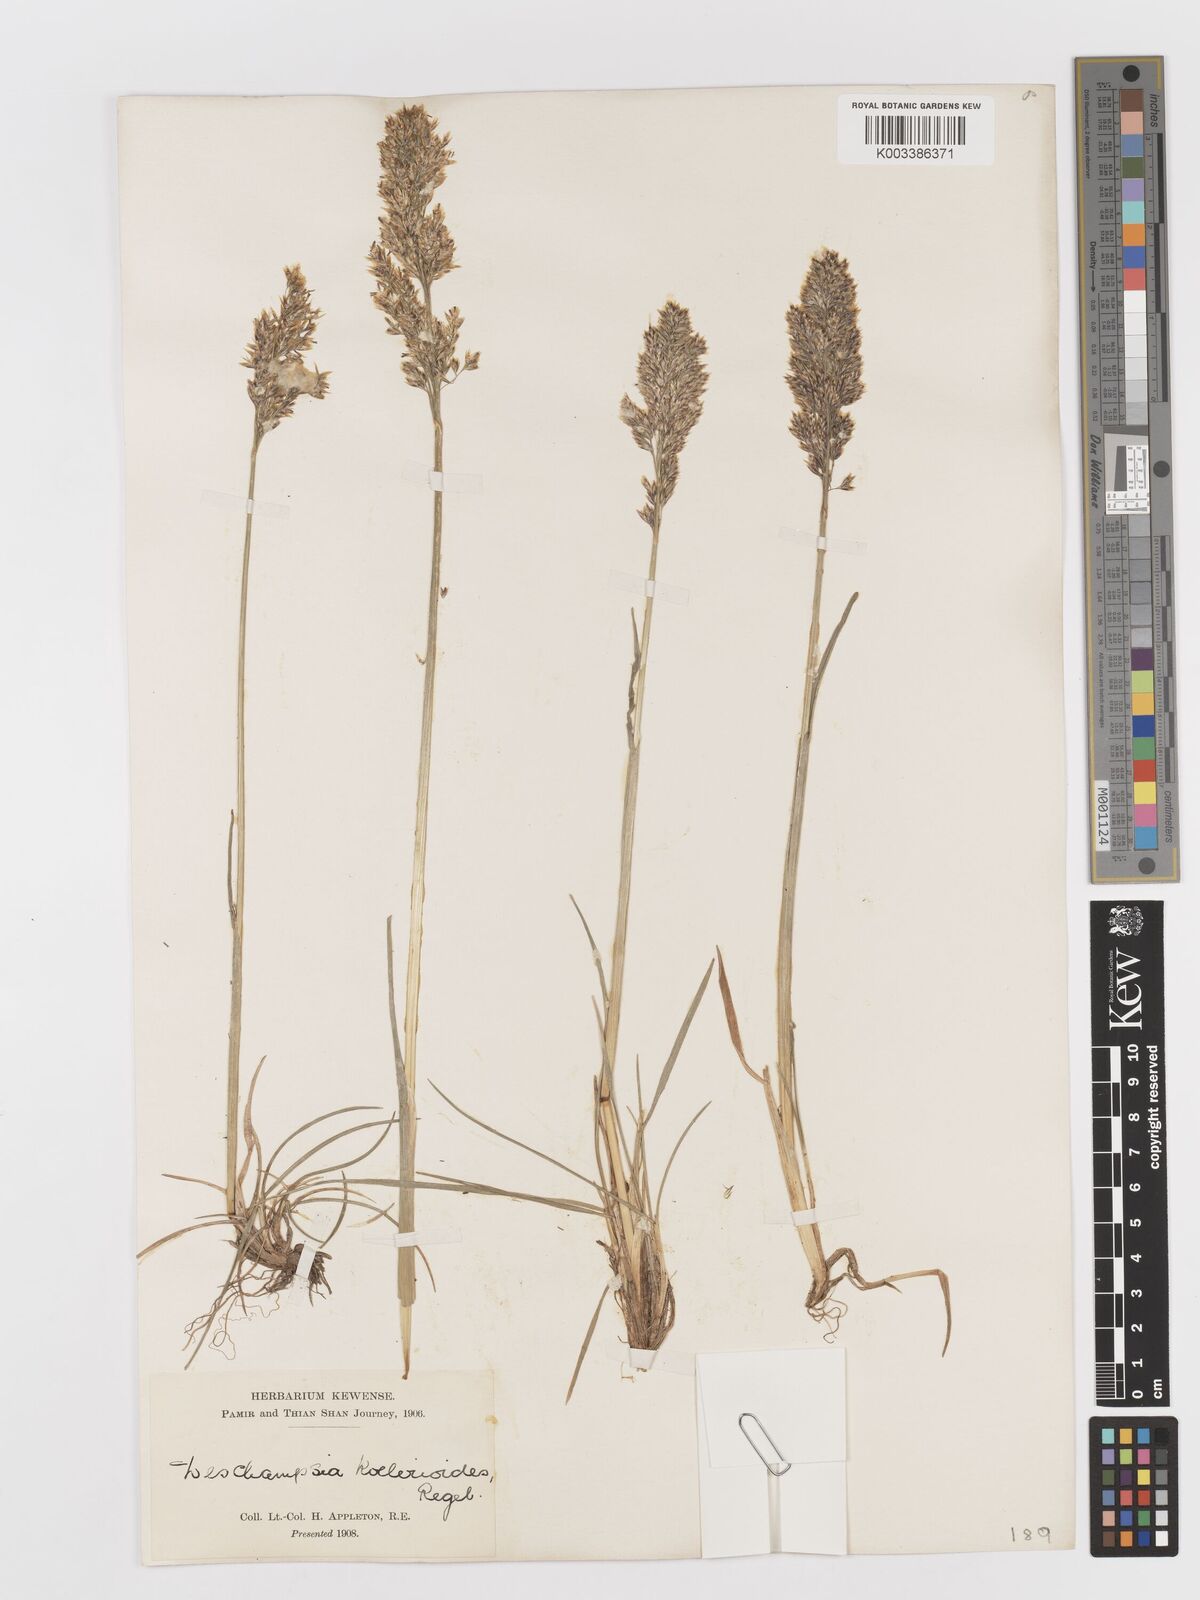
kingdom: Plantae
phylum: Tracheophyta
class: Liliopsida
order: Poales
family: Poaceae
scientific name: Poaceae
